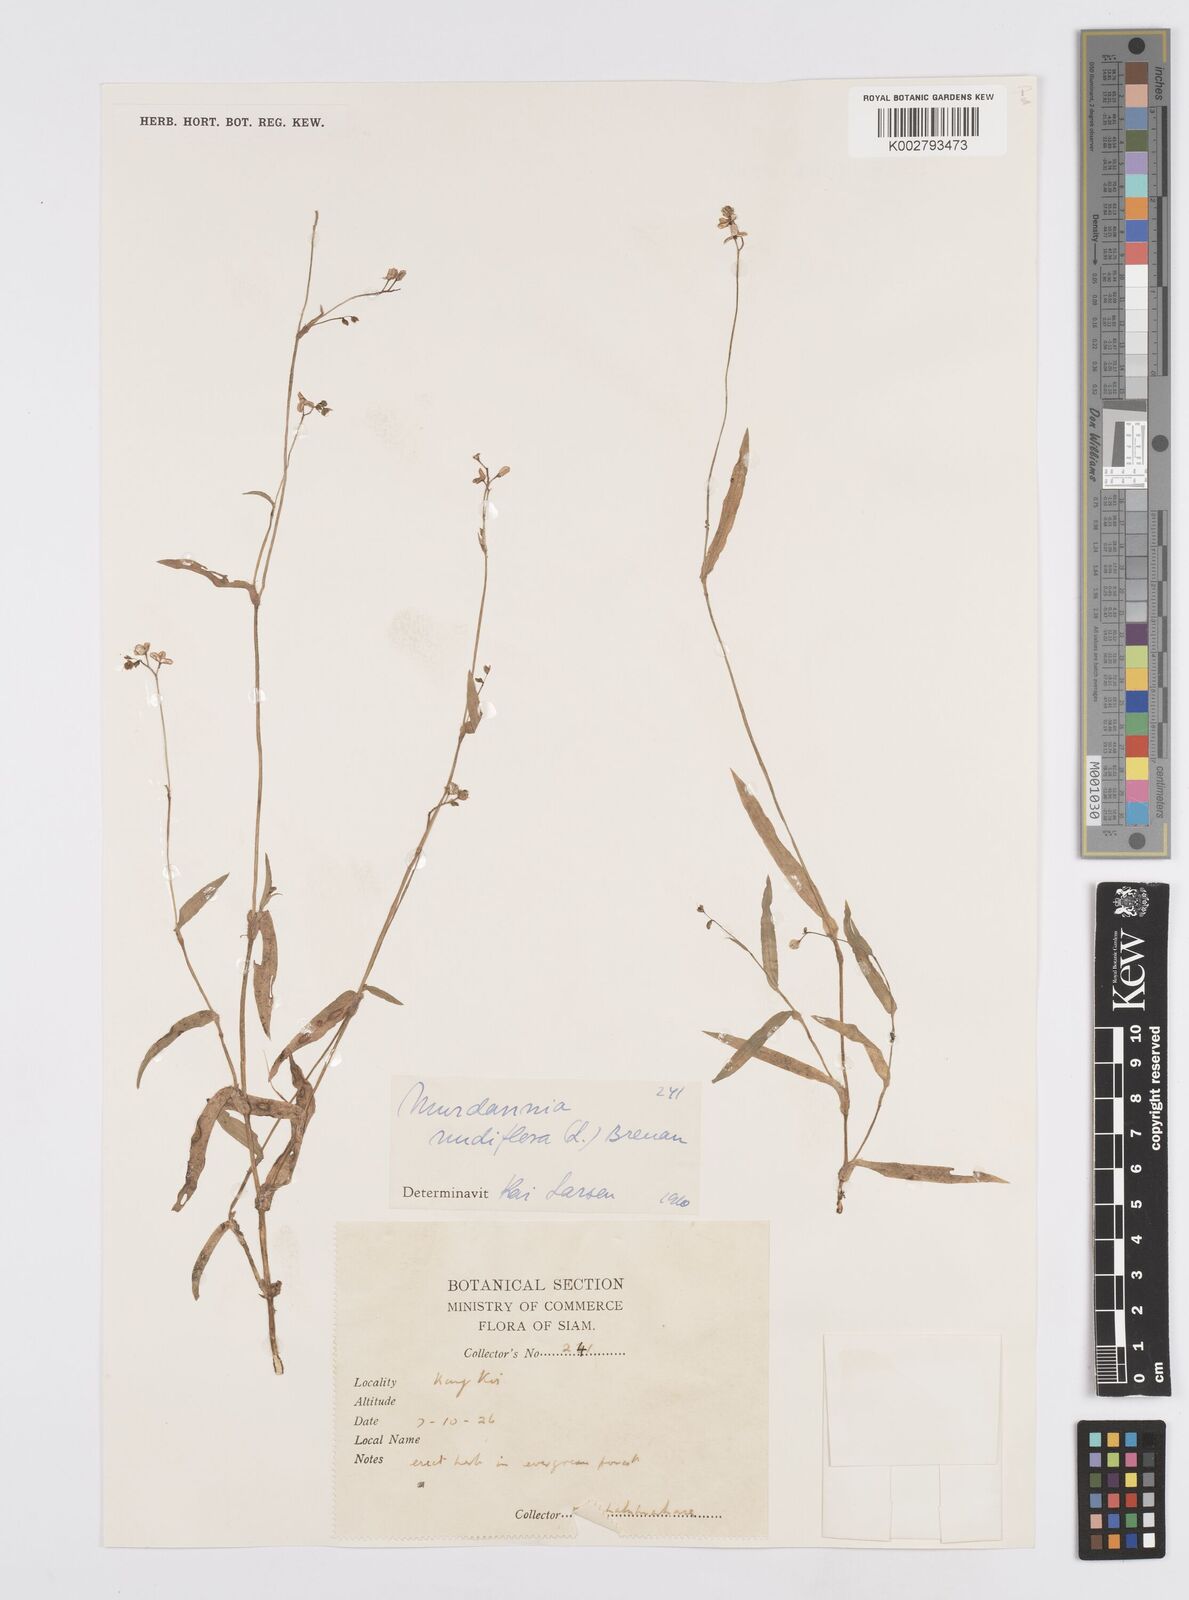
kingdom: Plantae
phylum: Tracheophyta
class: Liliopsida
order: Commelinales
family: Commelinaceae
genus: Murdannia
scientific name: Murdannia nudiflora
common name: Nakedstem dewflower
